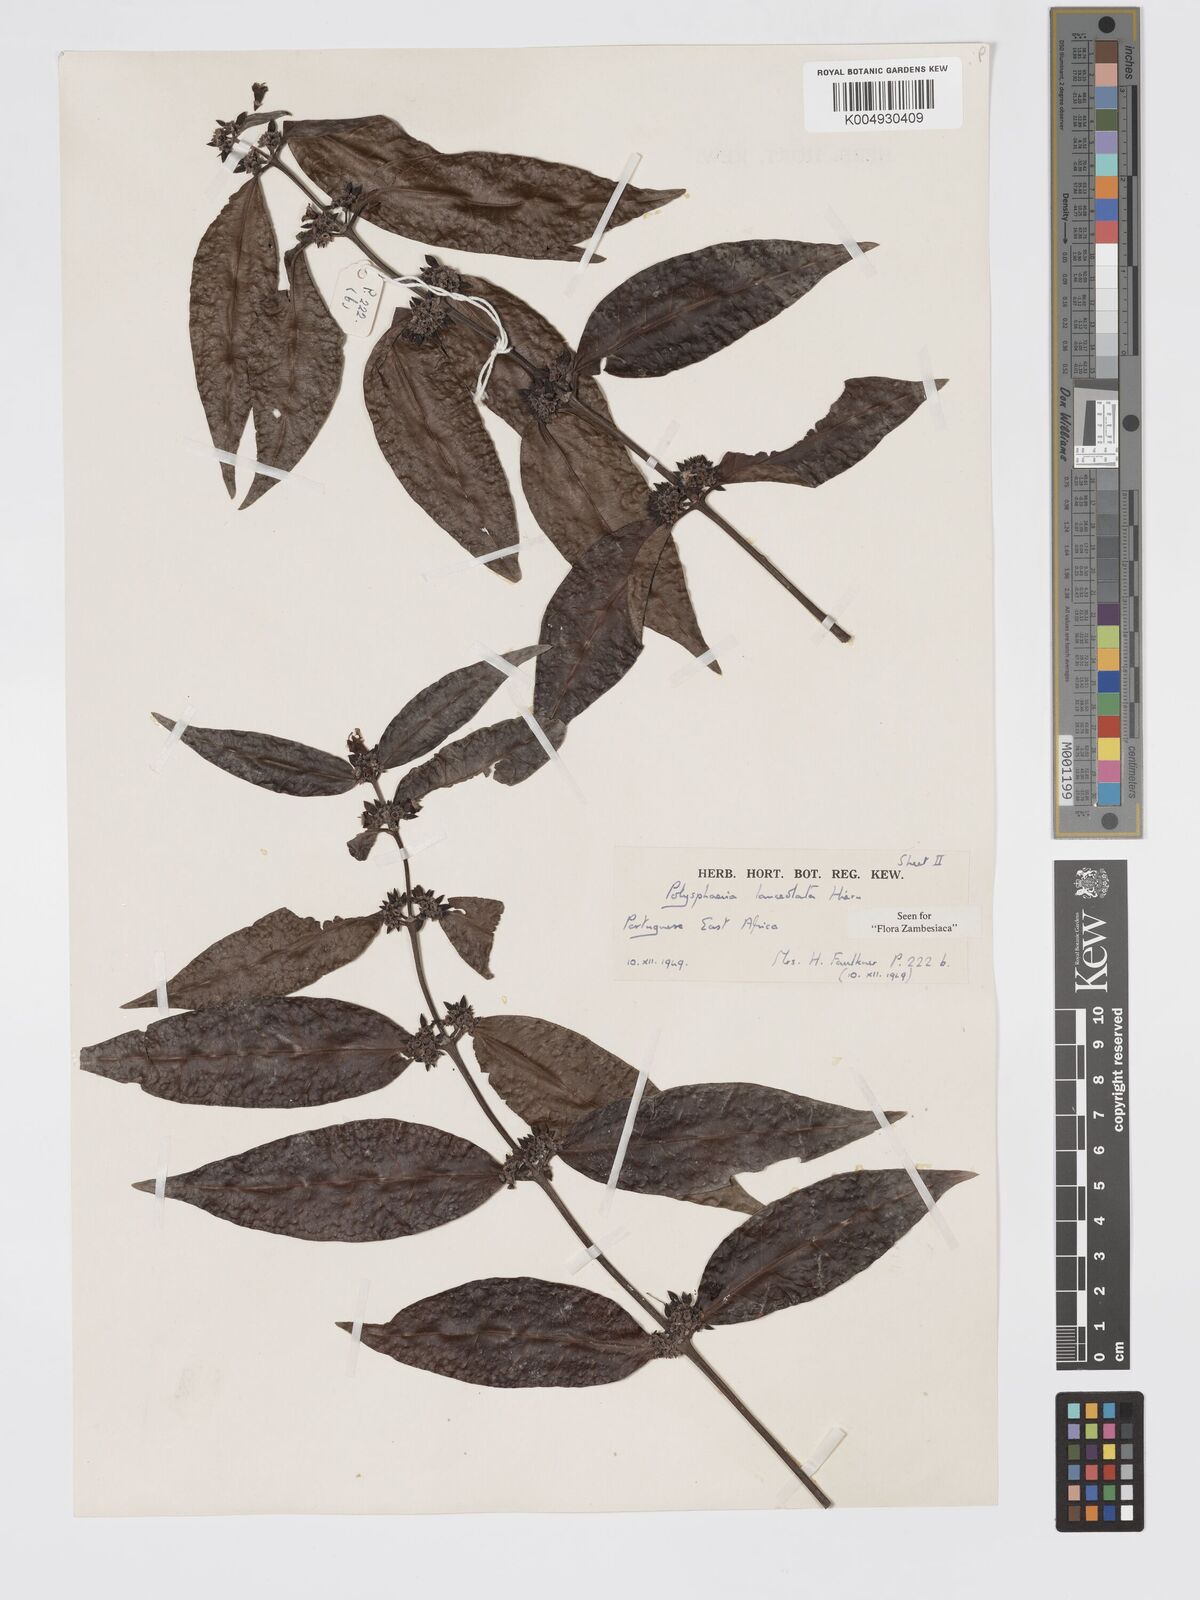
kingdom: Plantae
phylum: Tracheophyta
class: Magnoliopsida
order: Gentianales
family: Rubiaceae
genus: Polysphaeria
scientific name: Polysphaeria lanceolata
